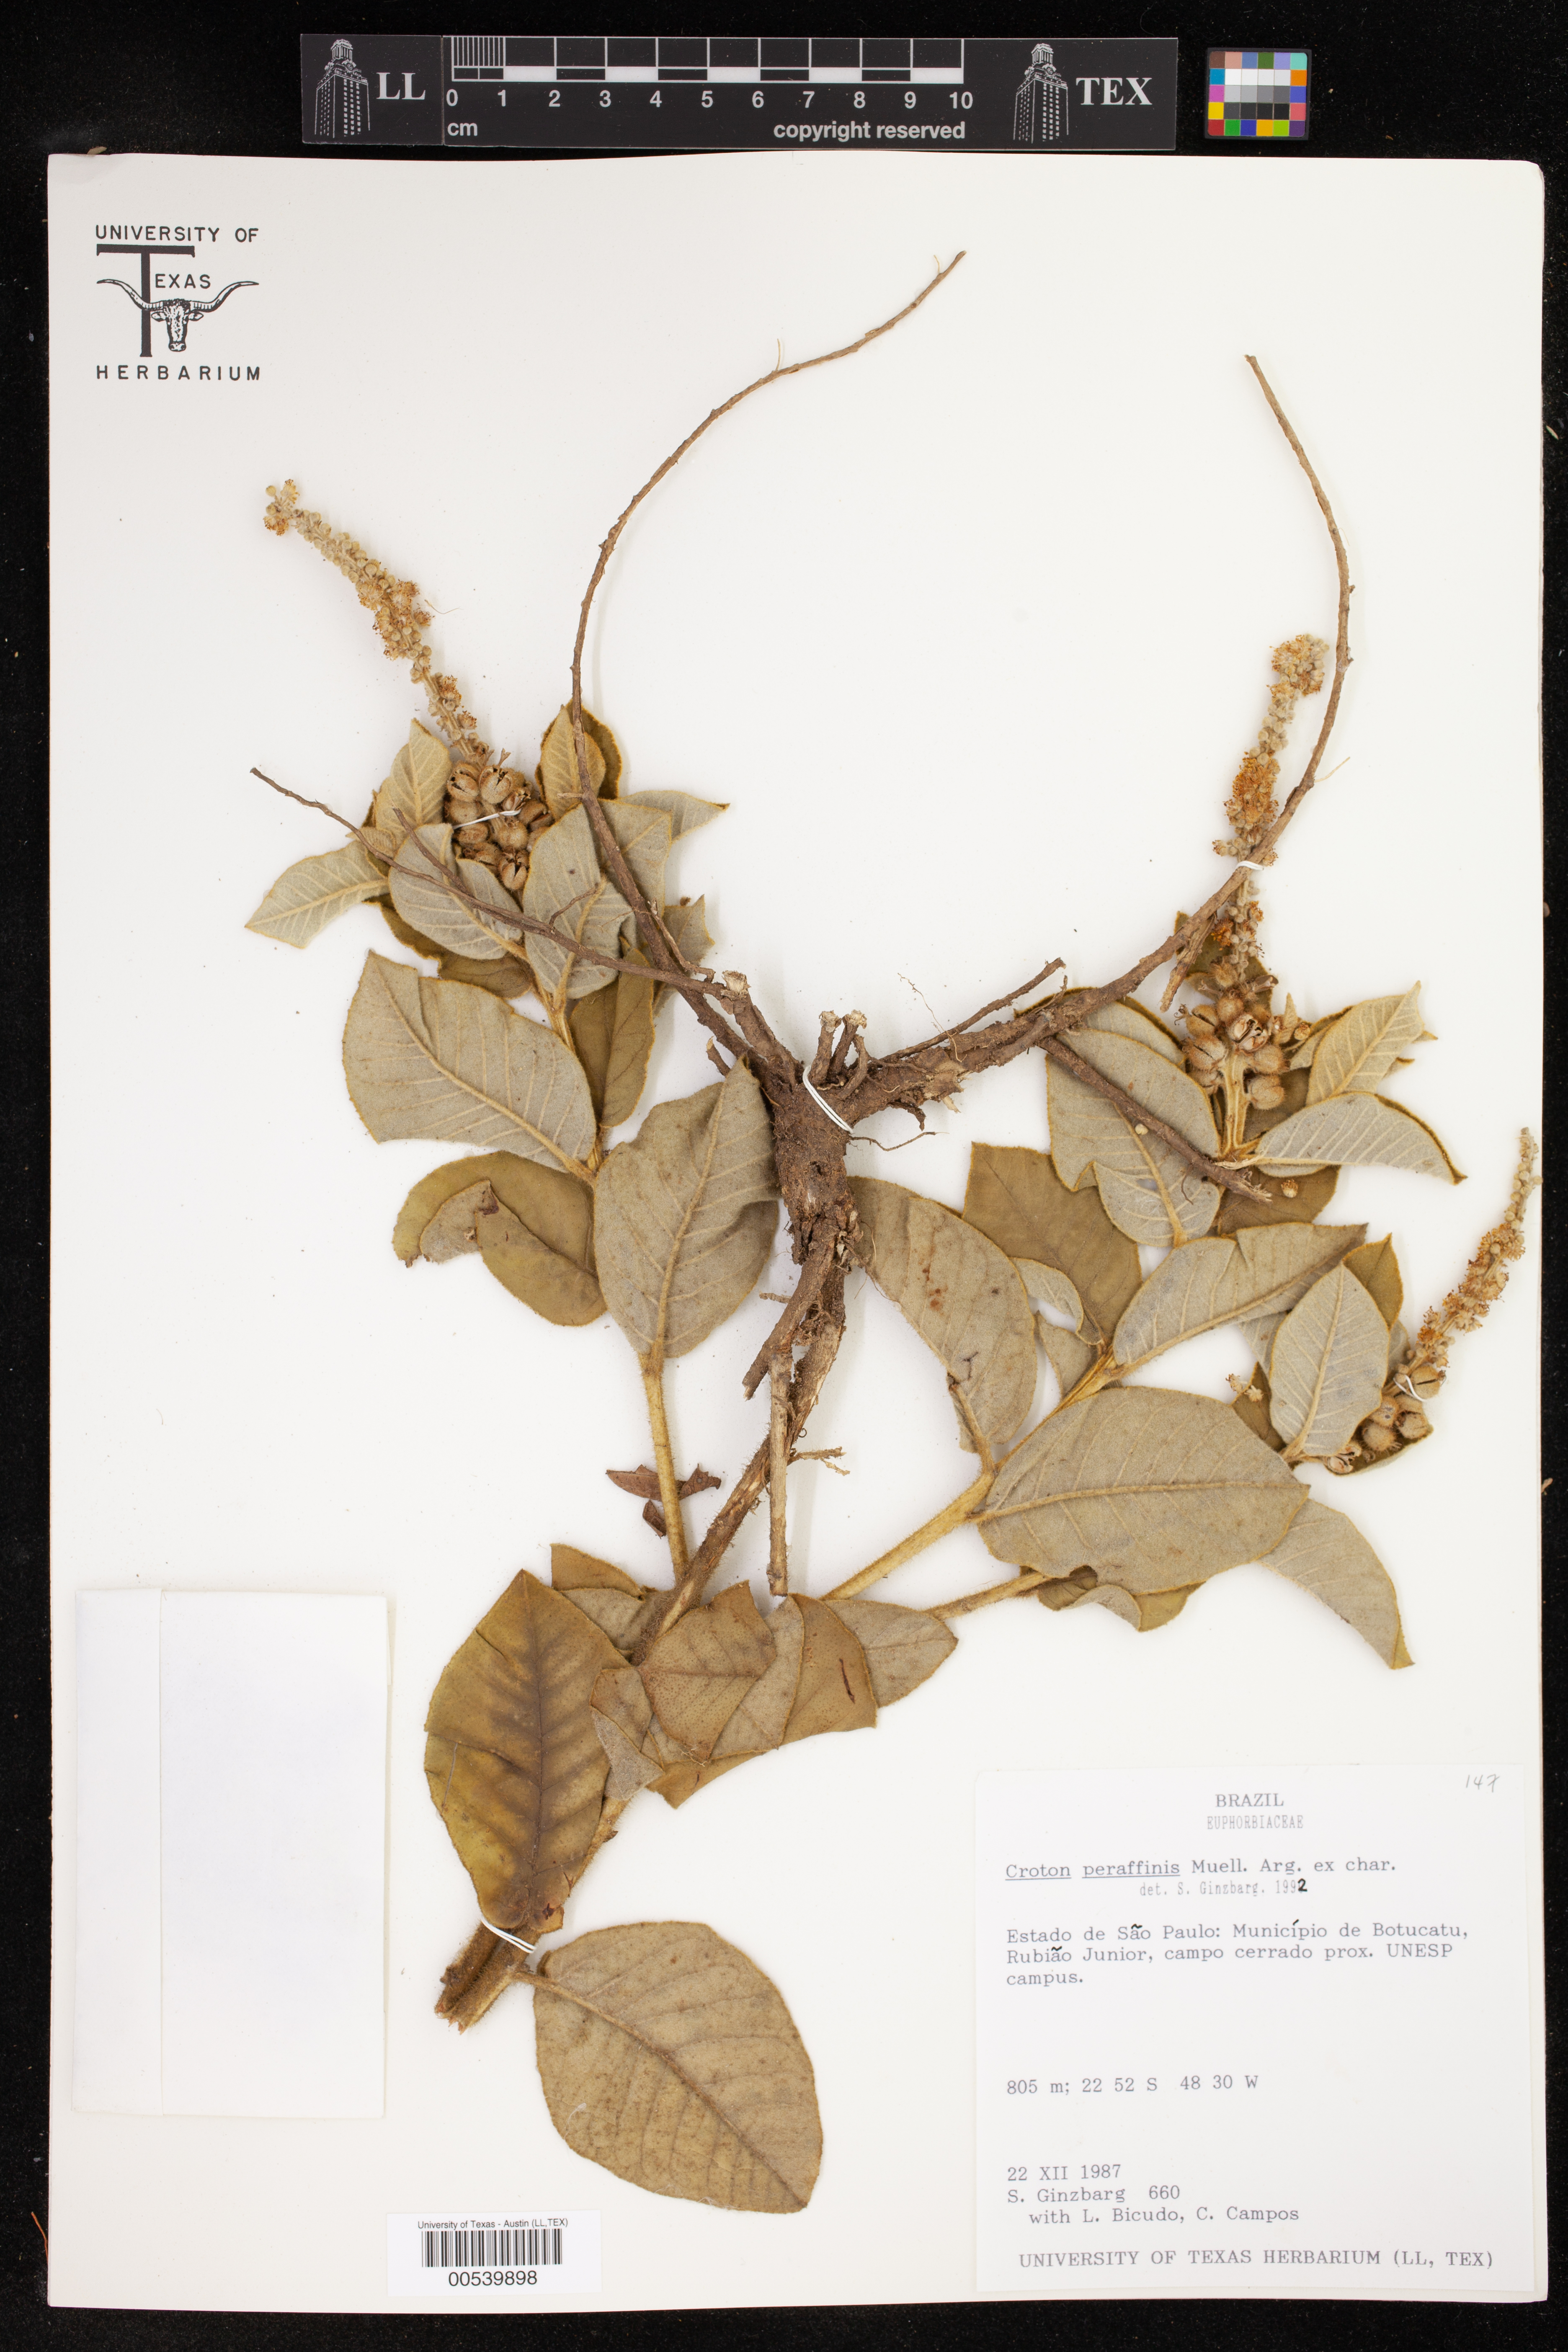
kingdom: Plantae
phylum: Tracheophyta
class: Magnoliopsida
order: Malpighiales
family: Euphorbiaceae
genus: Croton
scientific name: Croton fulvus
